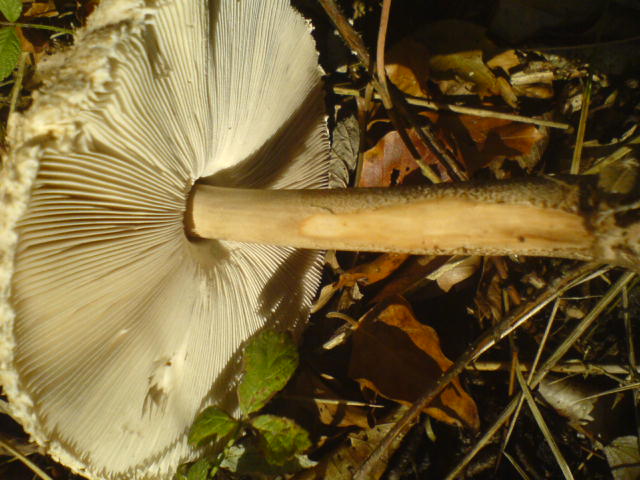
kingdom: Fungi
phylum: Basidiomycota
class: Agaricomycetes
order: Agaricales
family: Agaricaceae
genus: Macrolepiota
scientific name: Macrolepiota fuliginosa
